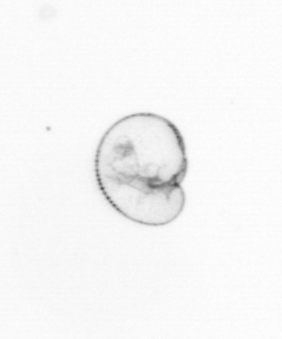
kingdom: Chromista
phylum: Myzozoa
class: Dinophyceae
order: Noctilucales
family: Noctilucaceae
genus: Noctiluca
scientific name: Noctiluca scintillans
